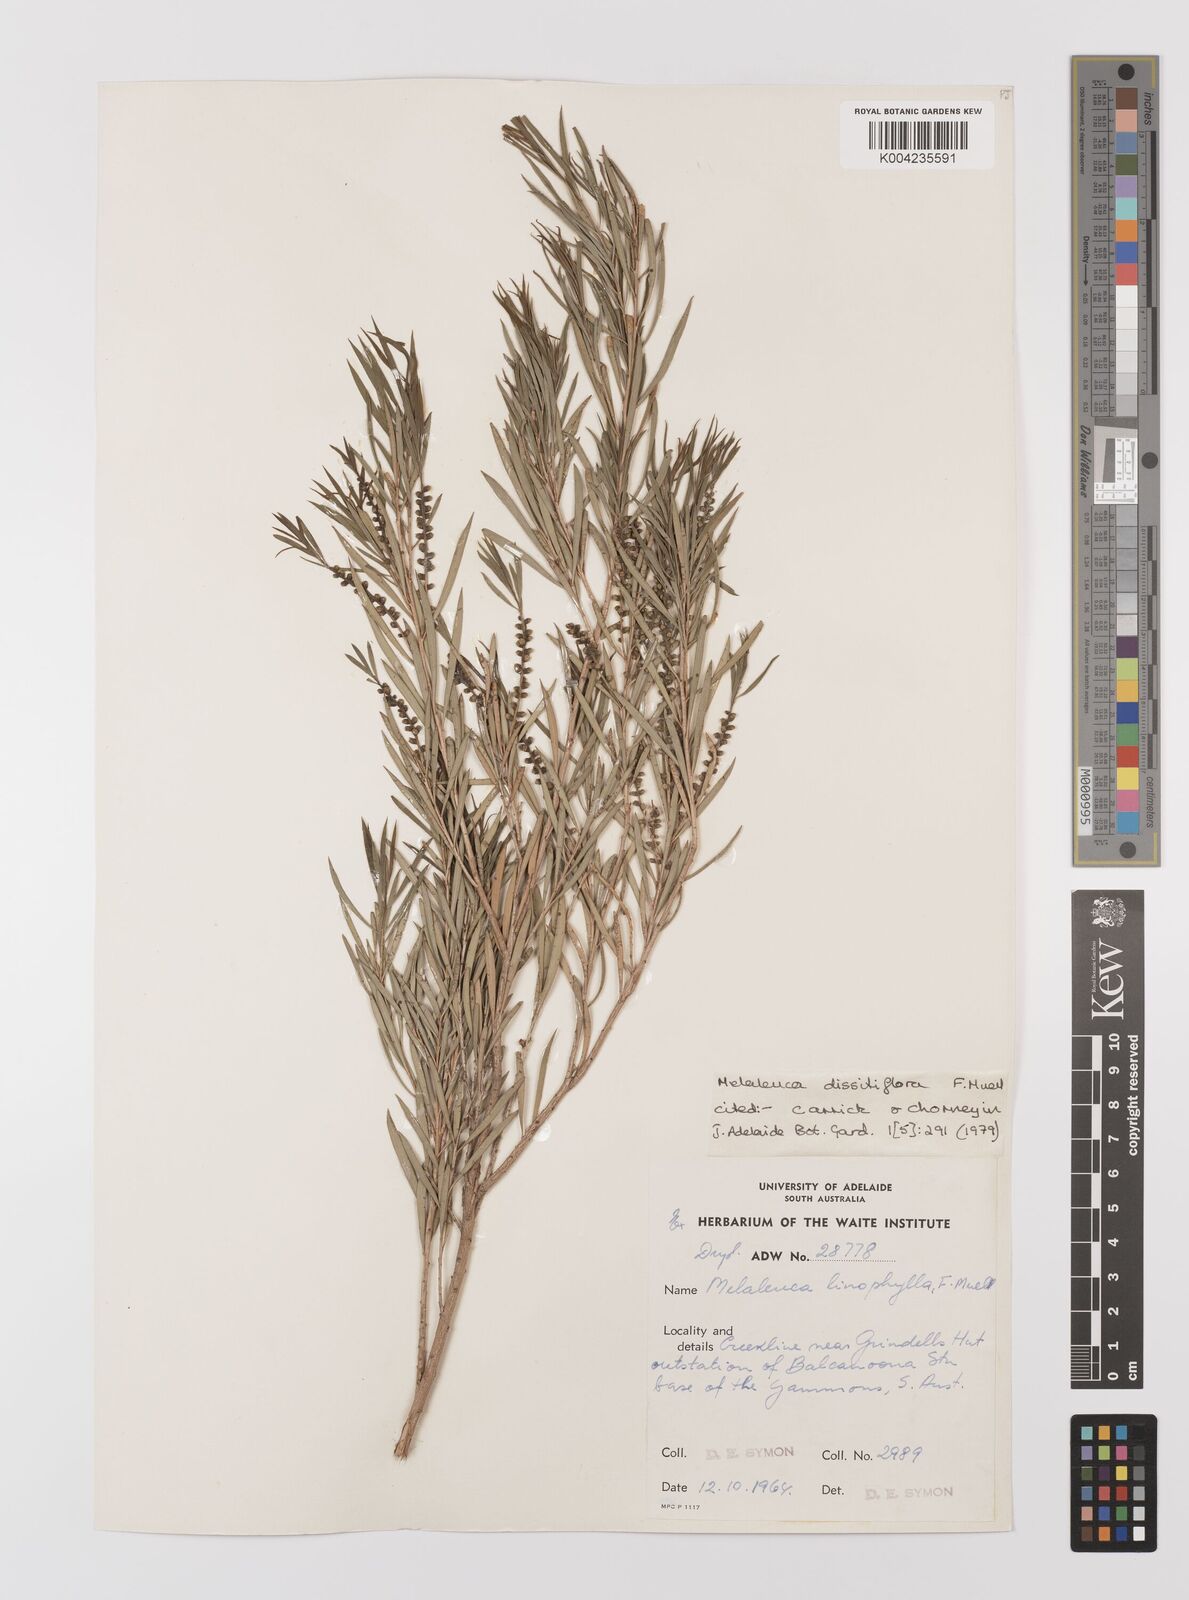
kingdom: Plantae
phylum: Tracheophyta
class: Magnoliopsida
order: Myrtales
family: Myrtaceae
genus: Melaleuca
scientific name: Melaleuca dissitiflora
